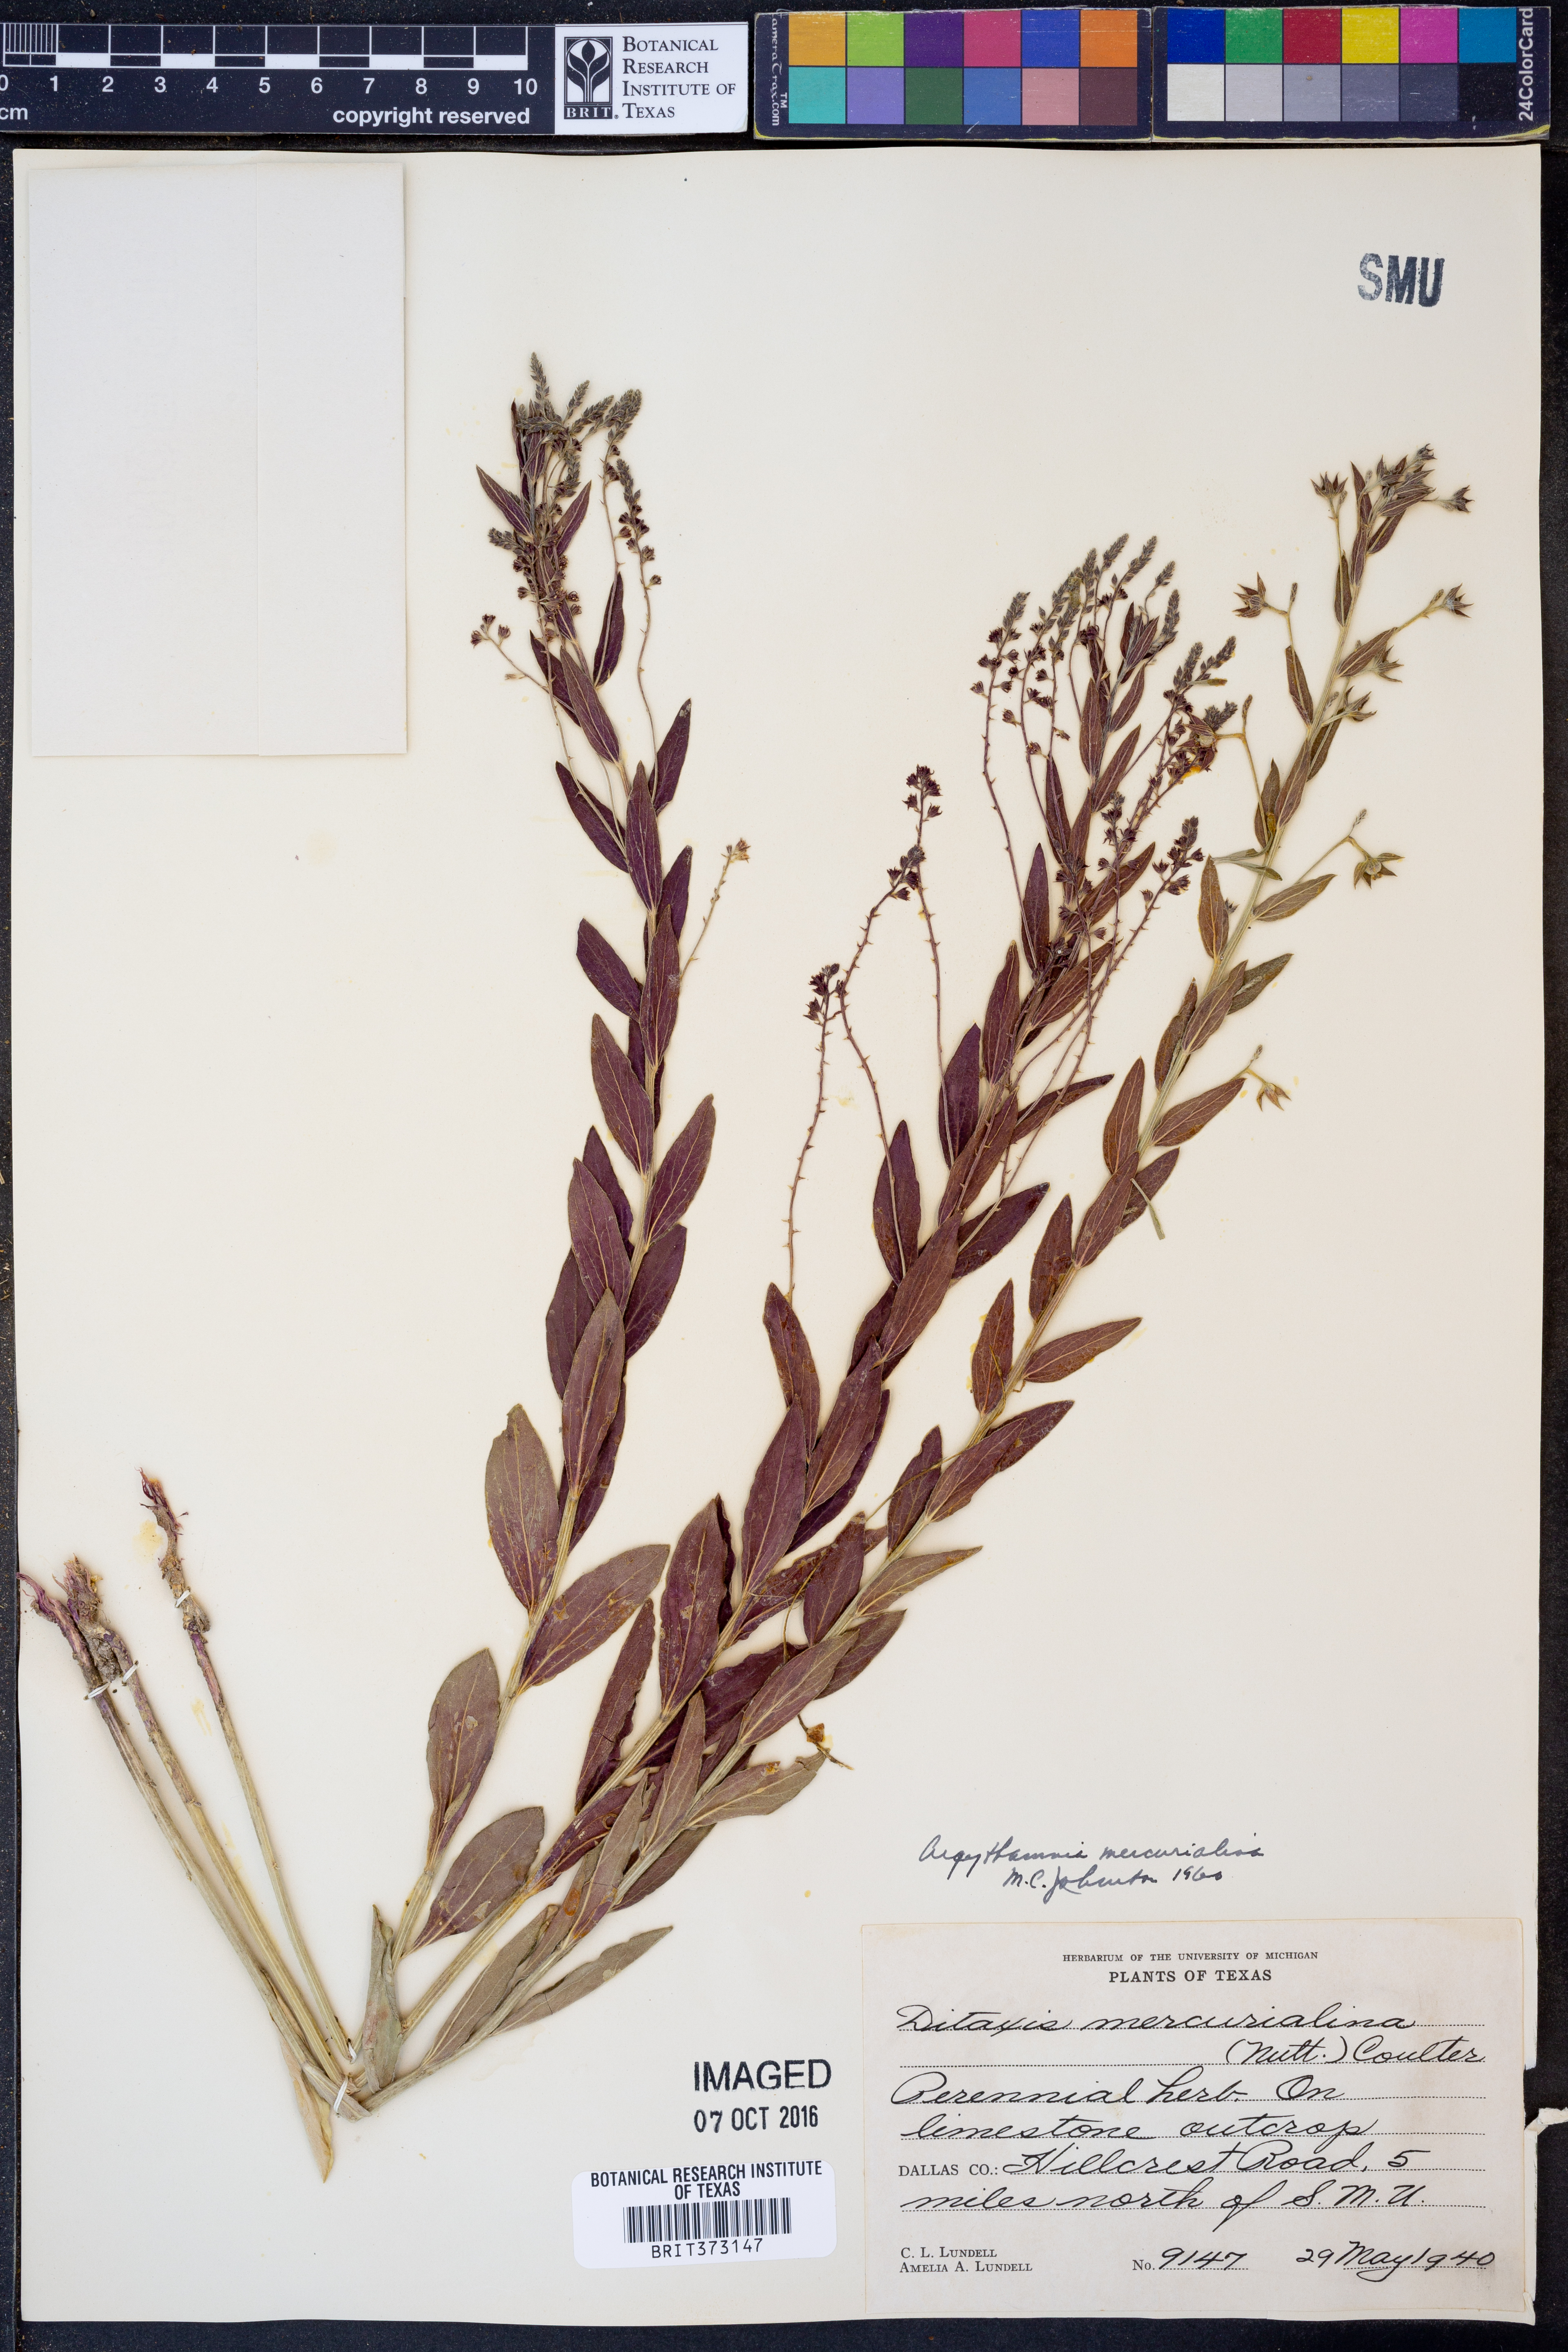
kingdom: Plantae
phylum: Tracheophyta
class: Magnoliopsida
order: Malpighiales
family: Euphorbiaceae
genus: Ditaxis
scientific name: Ditaxis mercurialina
